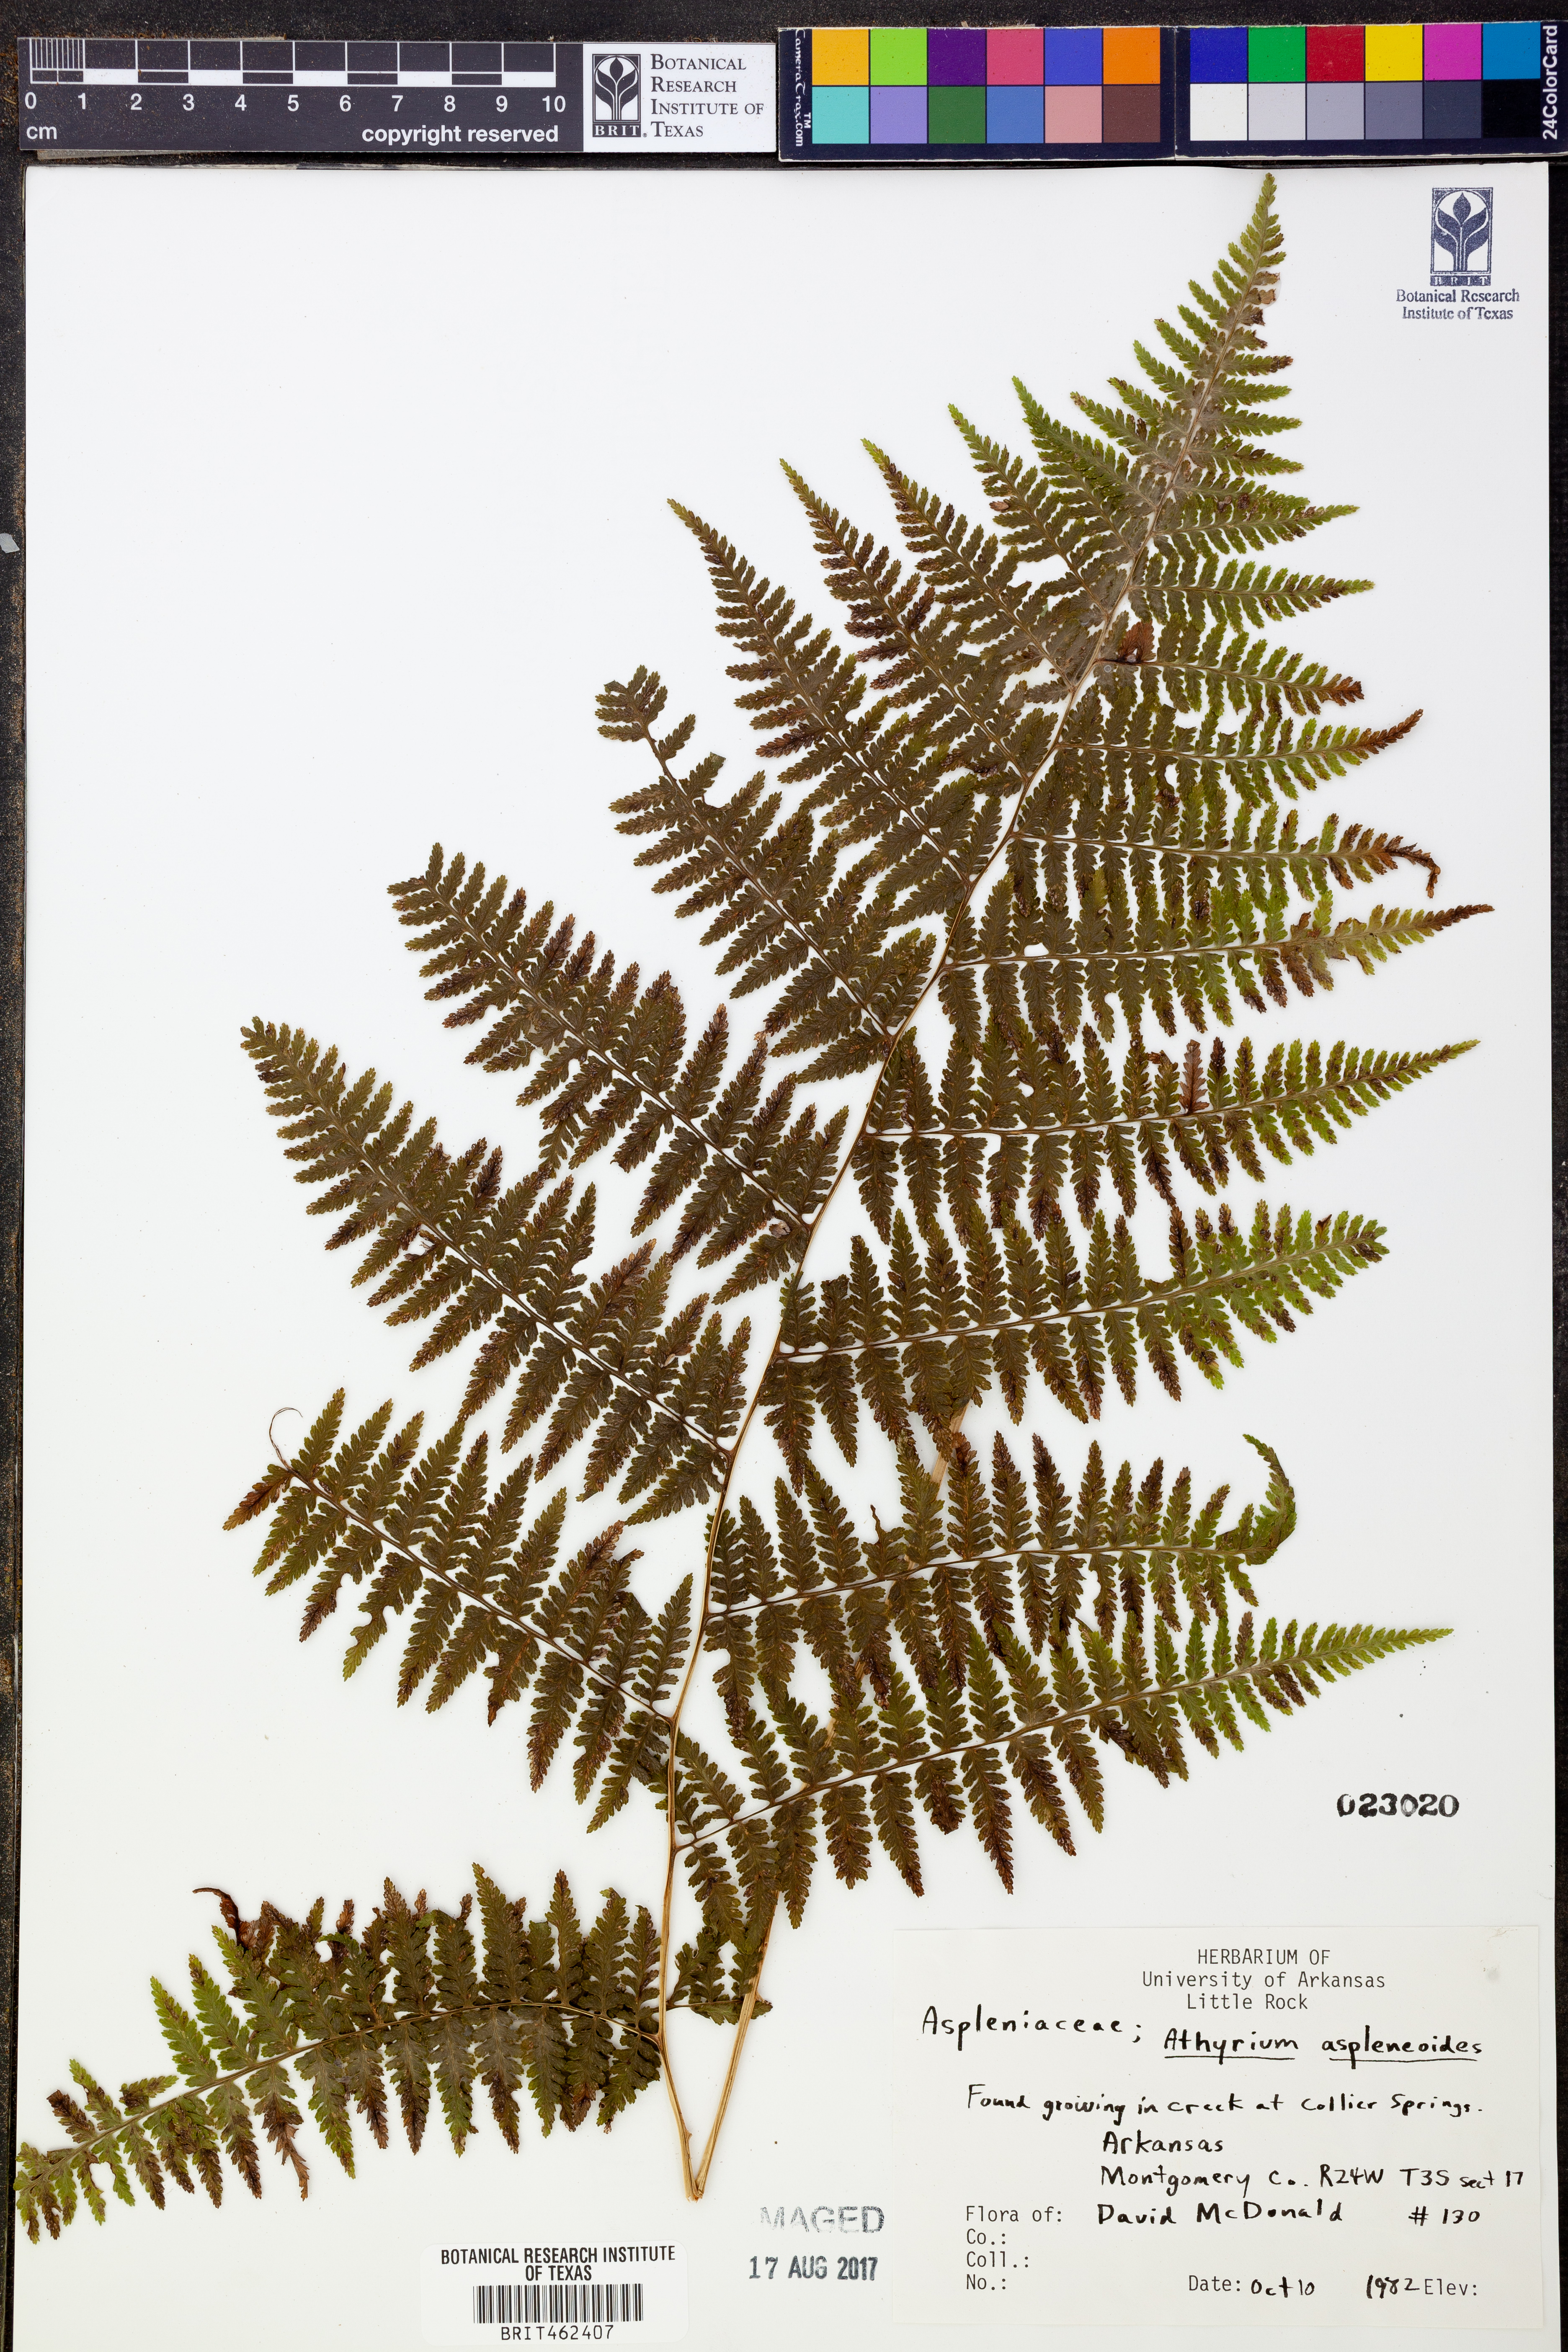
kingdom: Plantae
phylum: Tracheophyta
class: Polypodiopsida
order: Polypodiales
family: Athyriaceae
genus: Athyrium
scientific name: Athyrium asplenioides
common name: Southern lady fern
